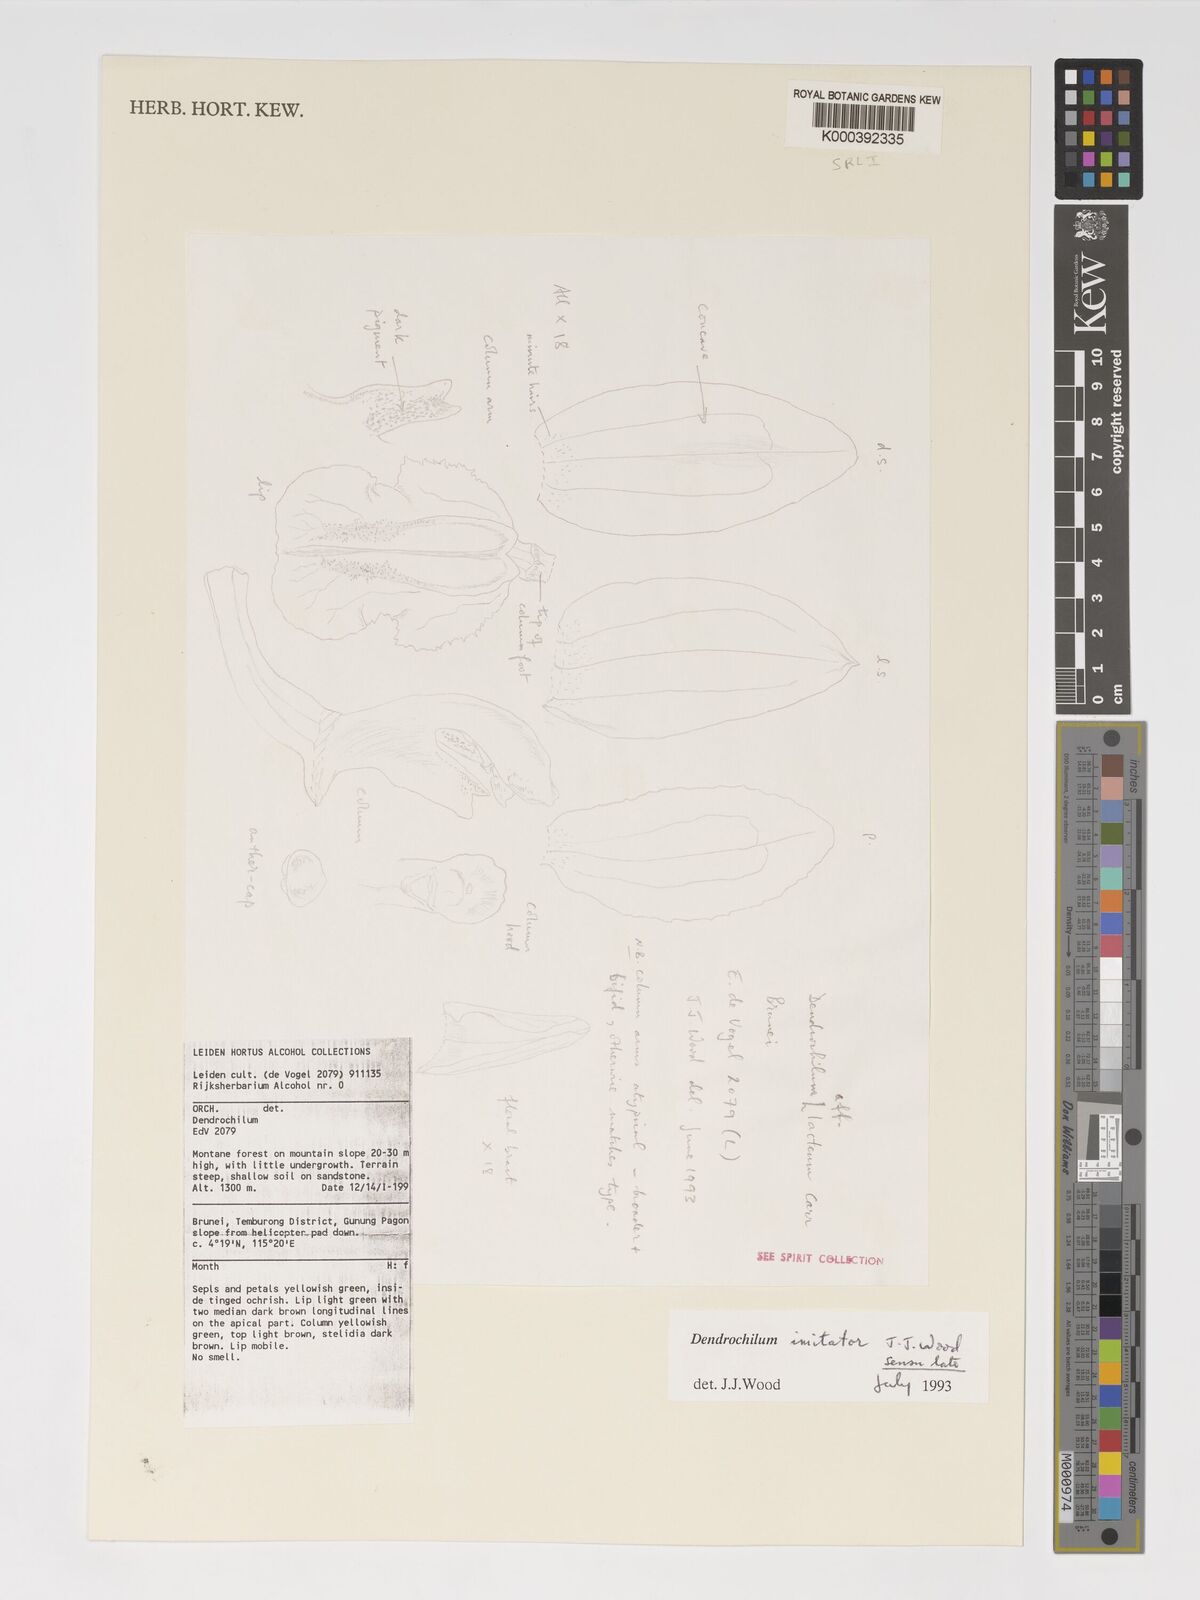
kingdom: Plantae
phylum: Tracheophyta
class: Liliopsida
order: Asparagales
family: Orchidaceae
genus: Coelogyne
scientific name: Coelogyne imitator
